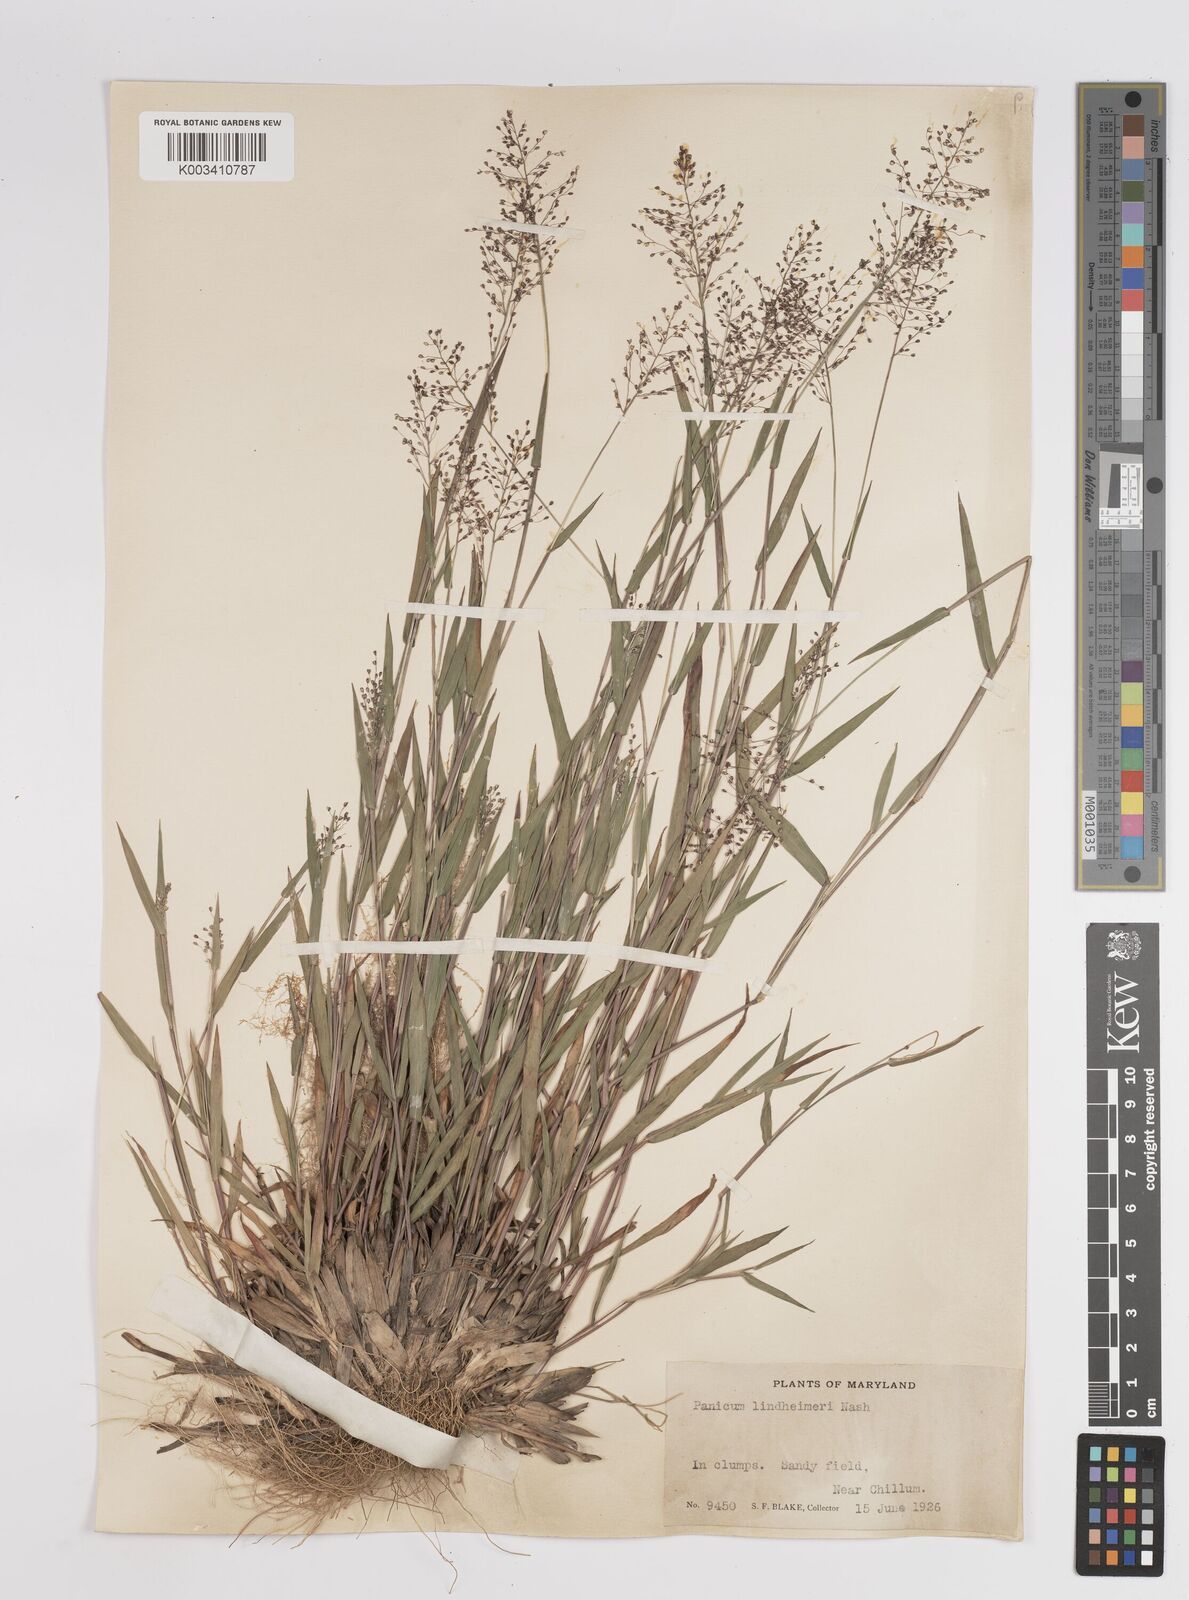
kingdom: Plantae
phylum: Tracheophyta
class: Liliopsida
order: Poales
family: Poaceae
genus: Dichanthelium
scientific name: Dichanthelium acuminatum
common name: Hairy panic grass
